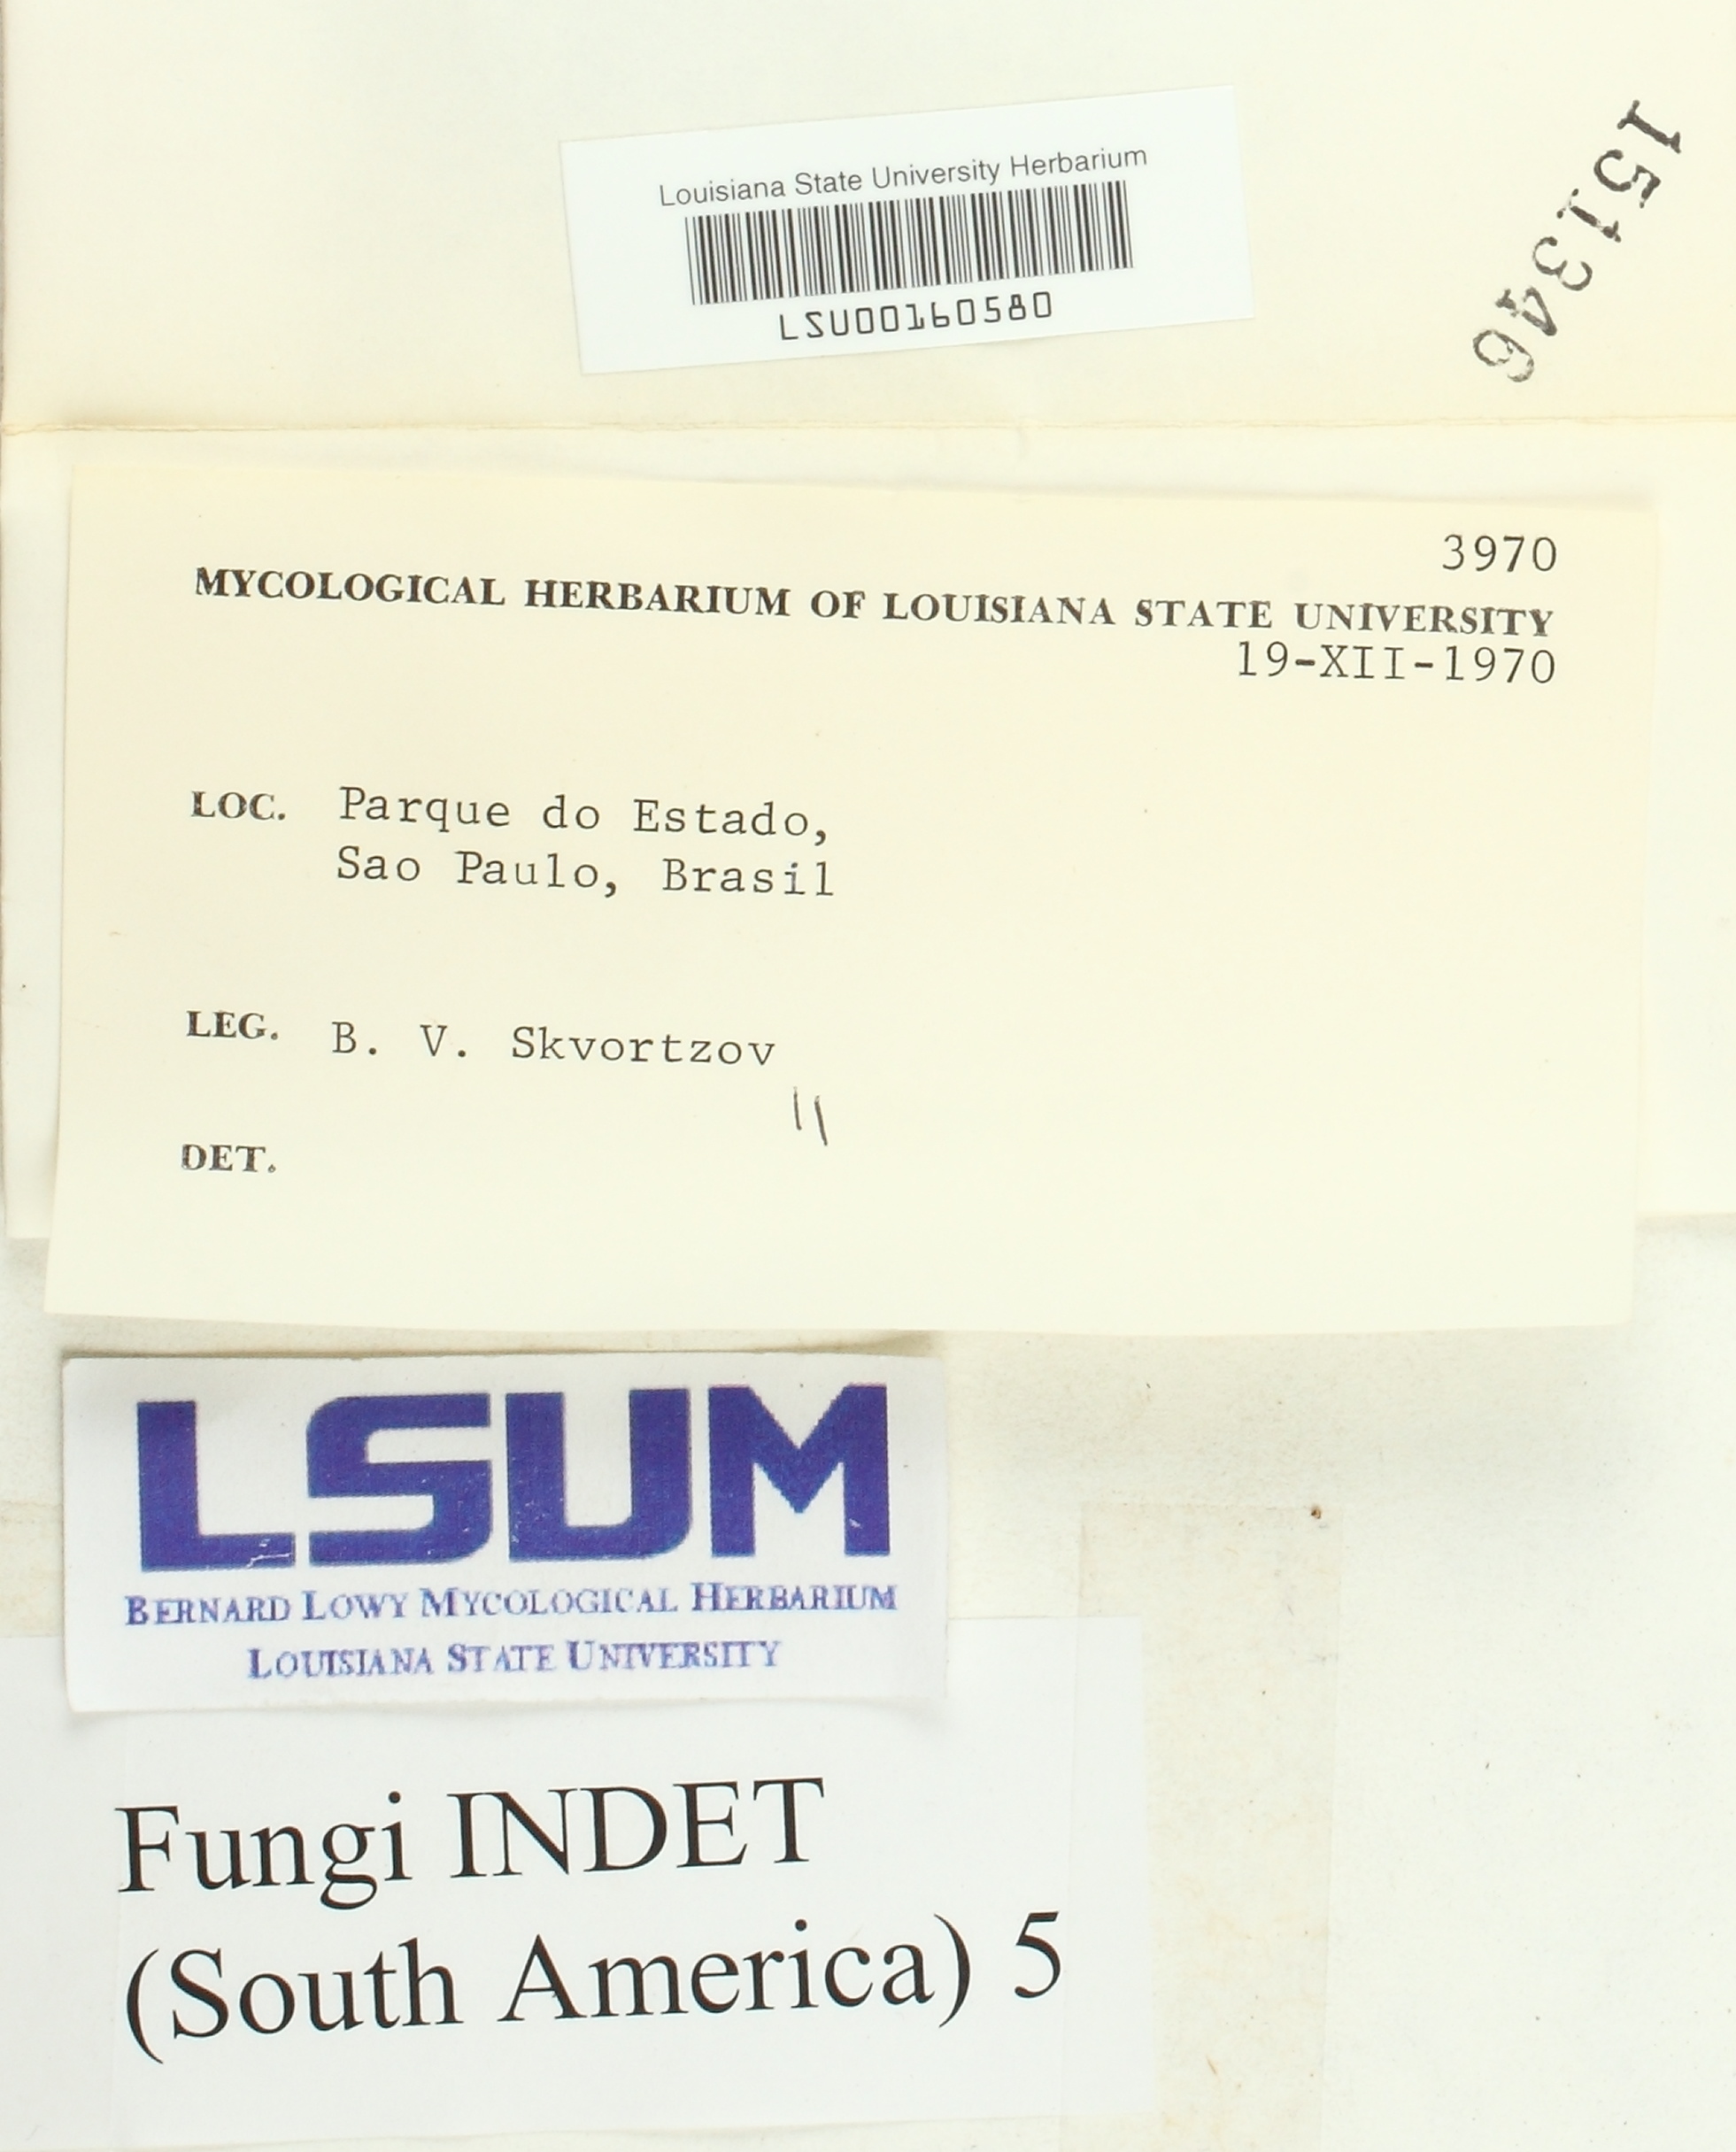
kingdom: Fungi
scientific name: Fungi
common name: Fungi
